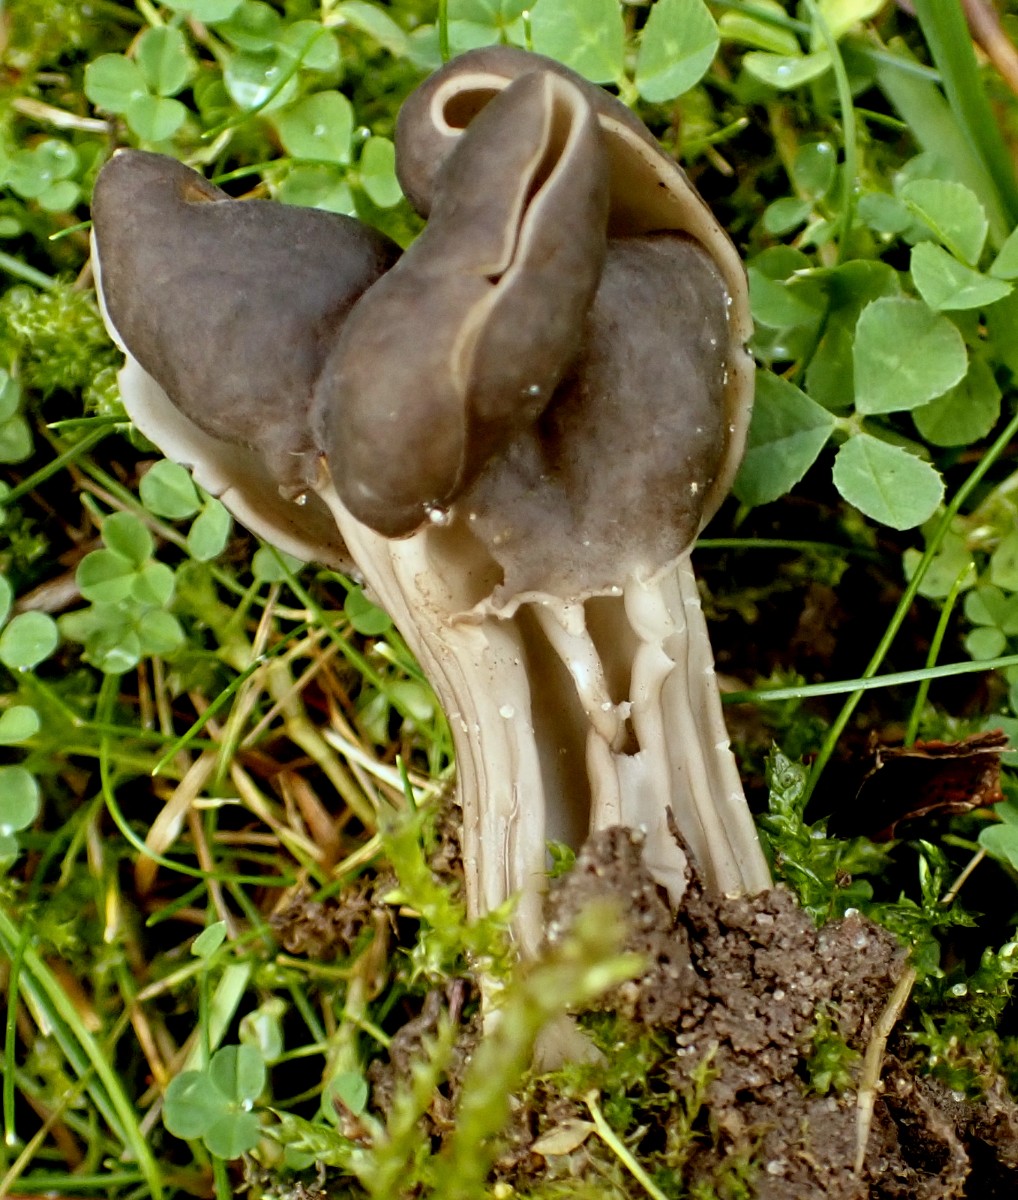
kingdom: Fungi
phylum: Ascomycota
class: Pezizomycetes
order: Pezizales
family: Helvellaceae
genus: Helvella
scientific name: Helvella lacunosa
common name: grubet foldhat
